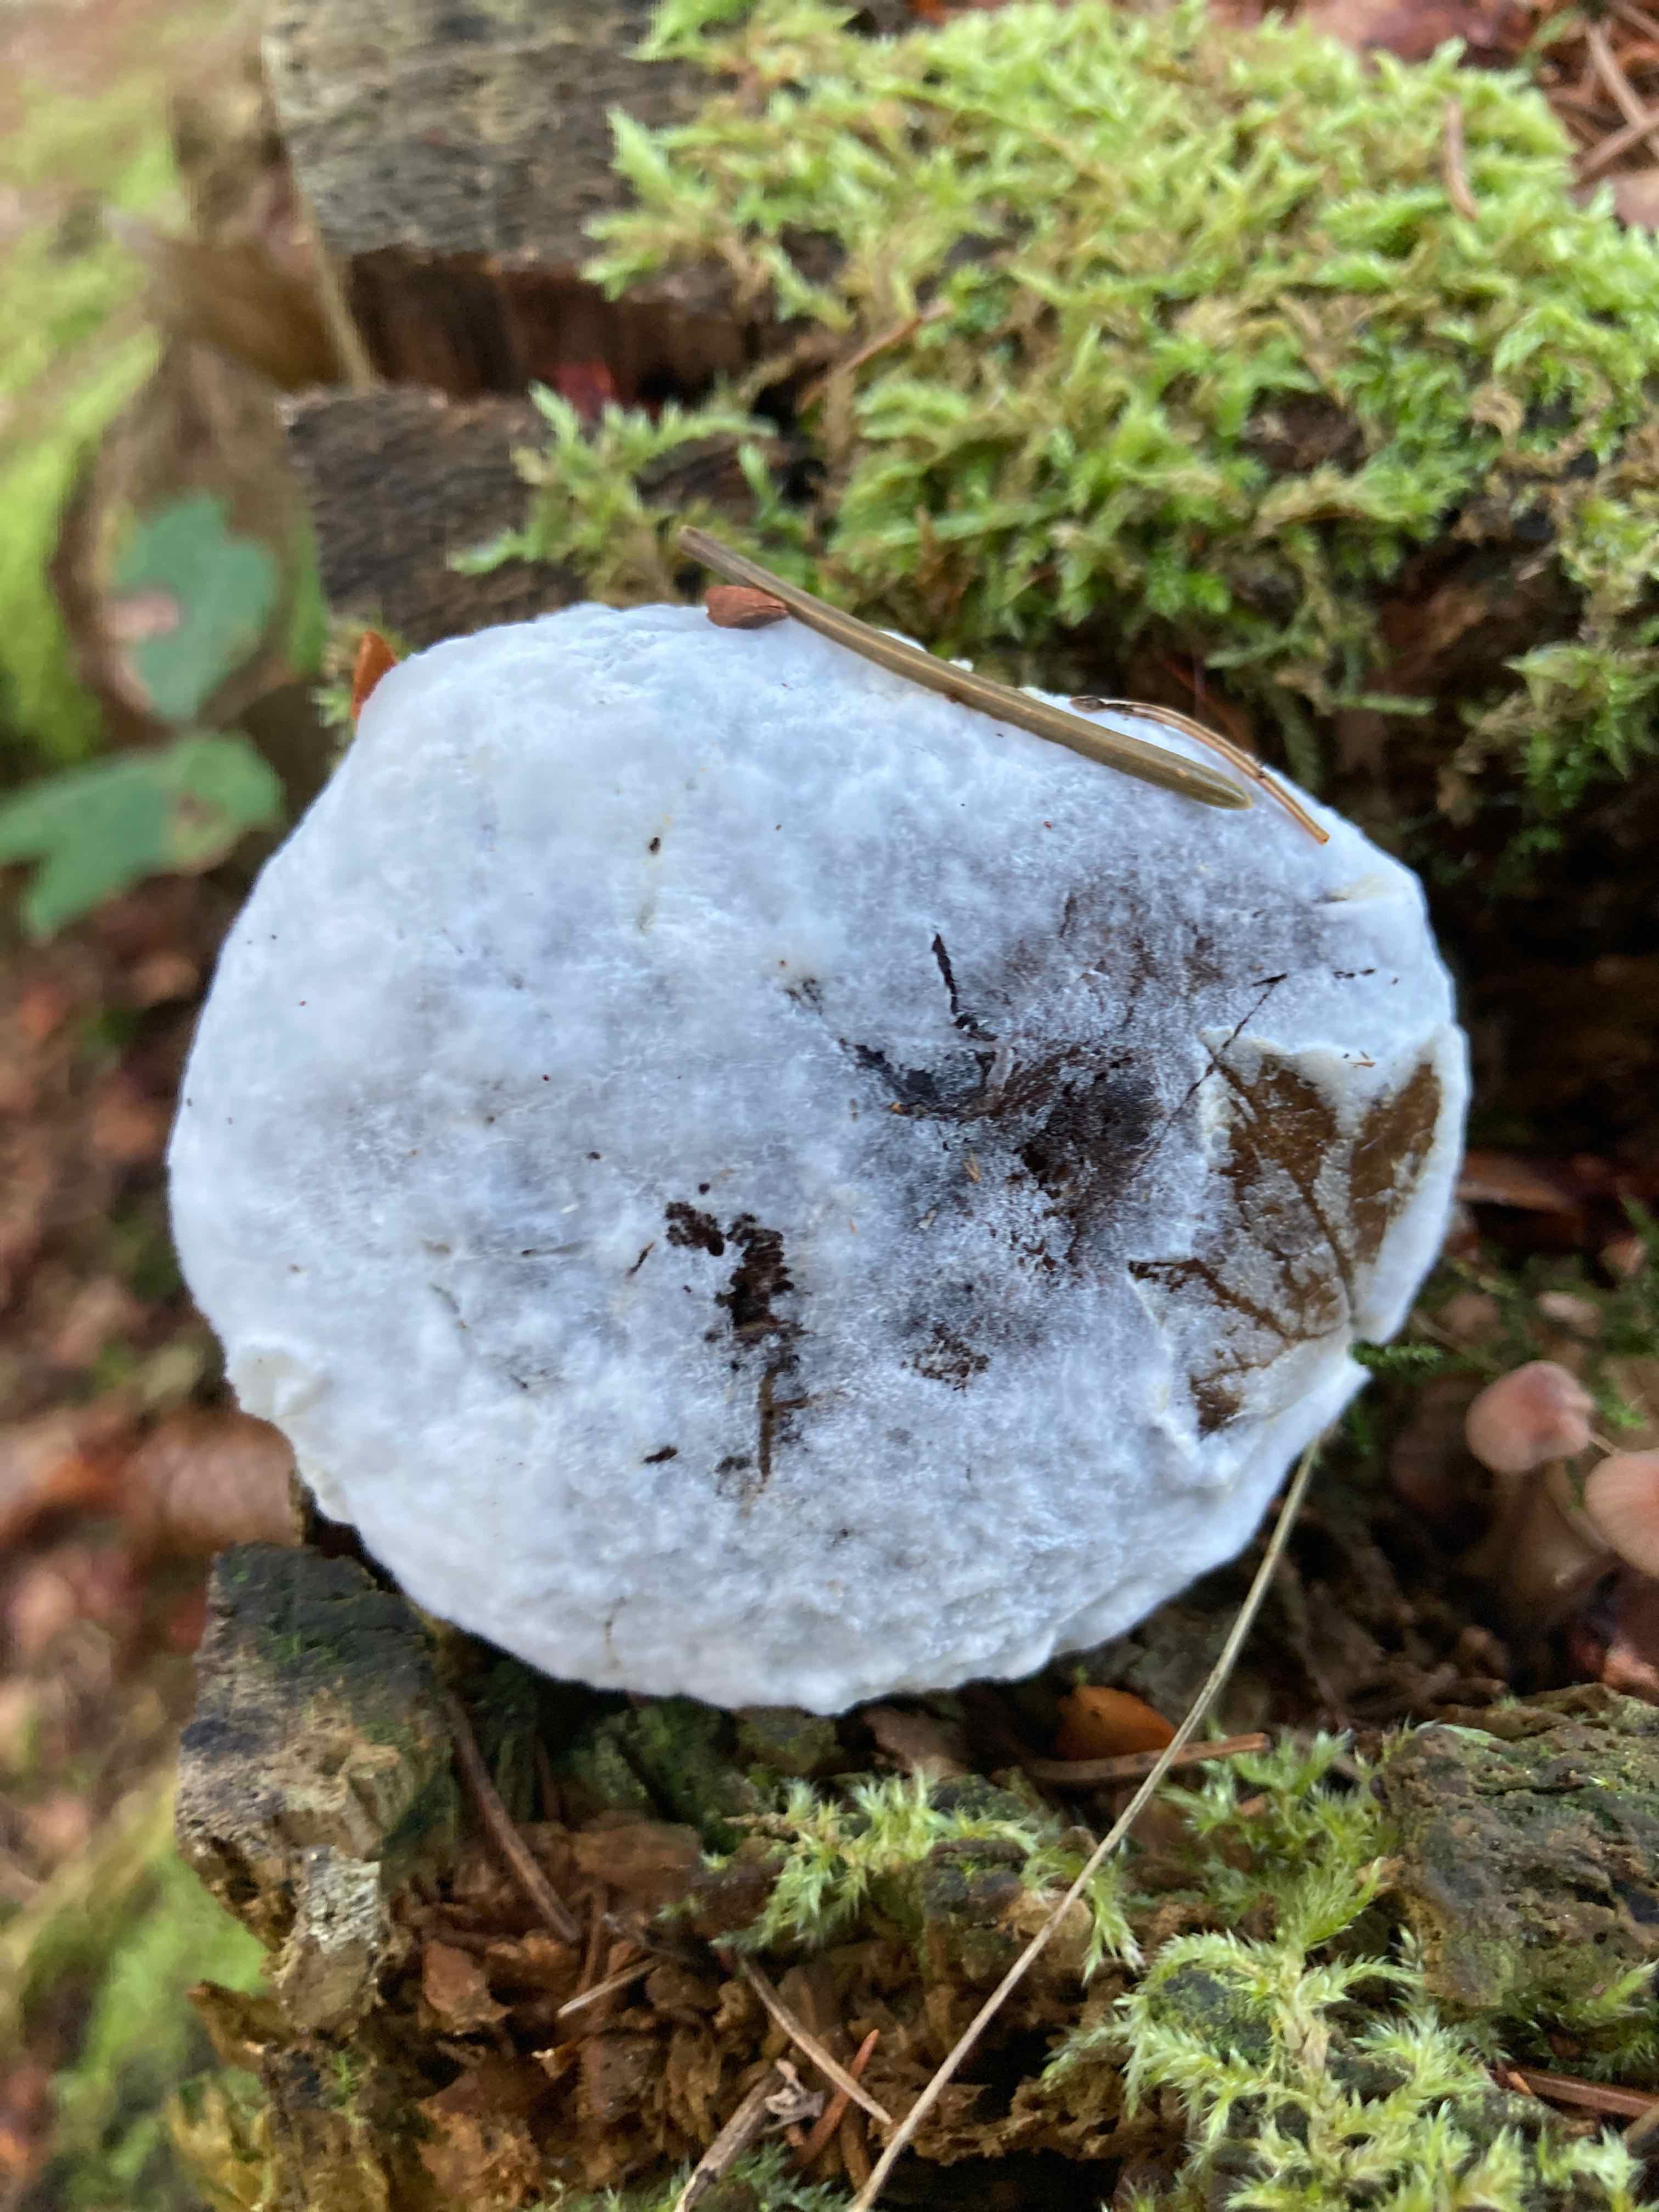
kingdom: Fungi
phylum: Ascomycota
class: Sordariomycetes
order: Hypocreales
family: Hypocreaceae
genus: Hypomyces
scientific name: Hypomyces
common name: snylteskorpe
